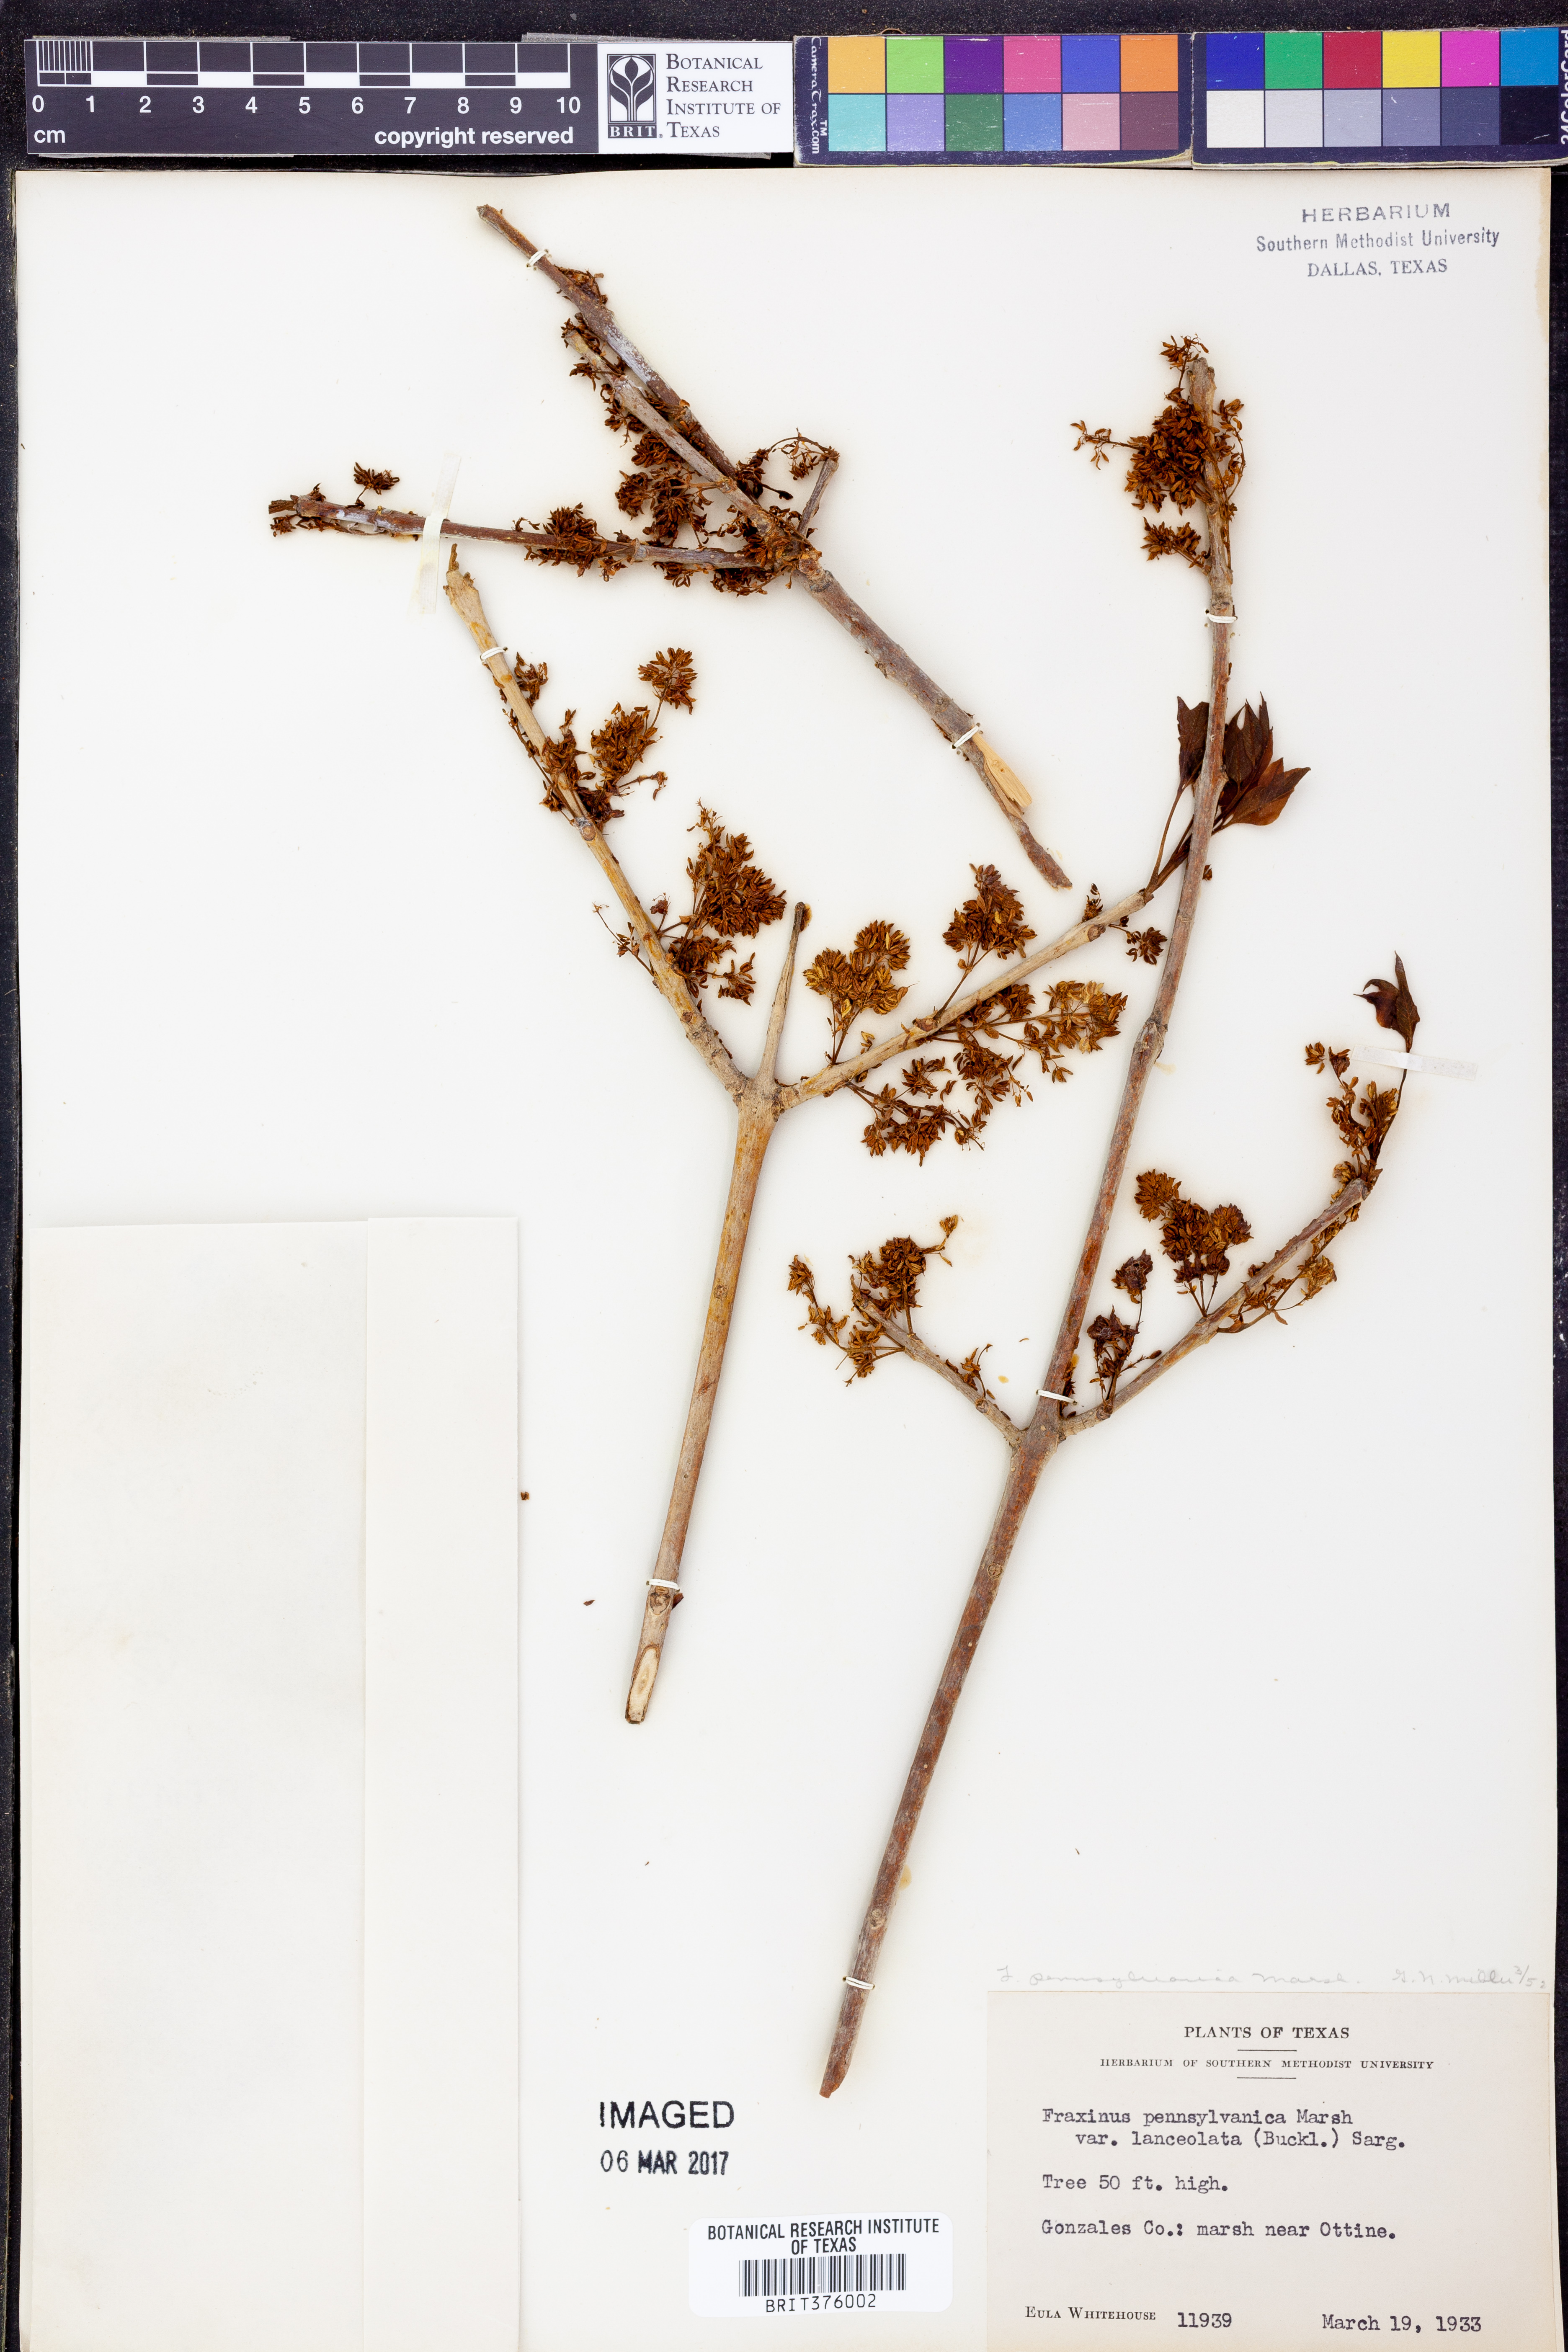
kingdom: Plantae
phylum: Tracheophyta
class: Magnoliopsida
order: Lamiales
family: Oleaceae
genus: Fraxinus
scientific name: Fraxinus pennsylvanica
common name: Green ash
